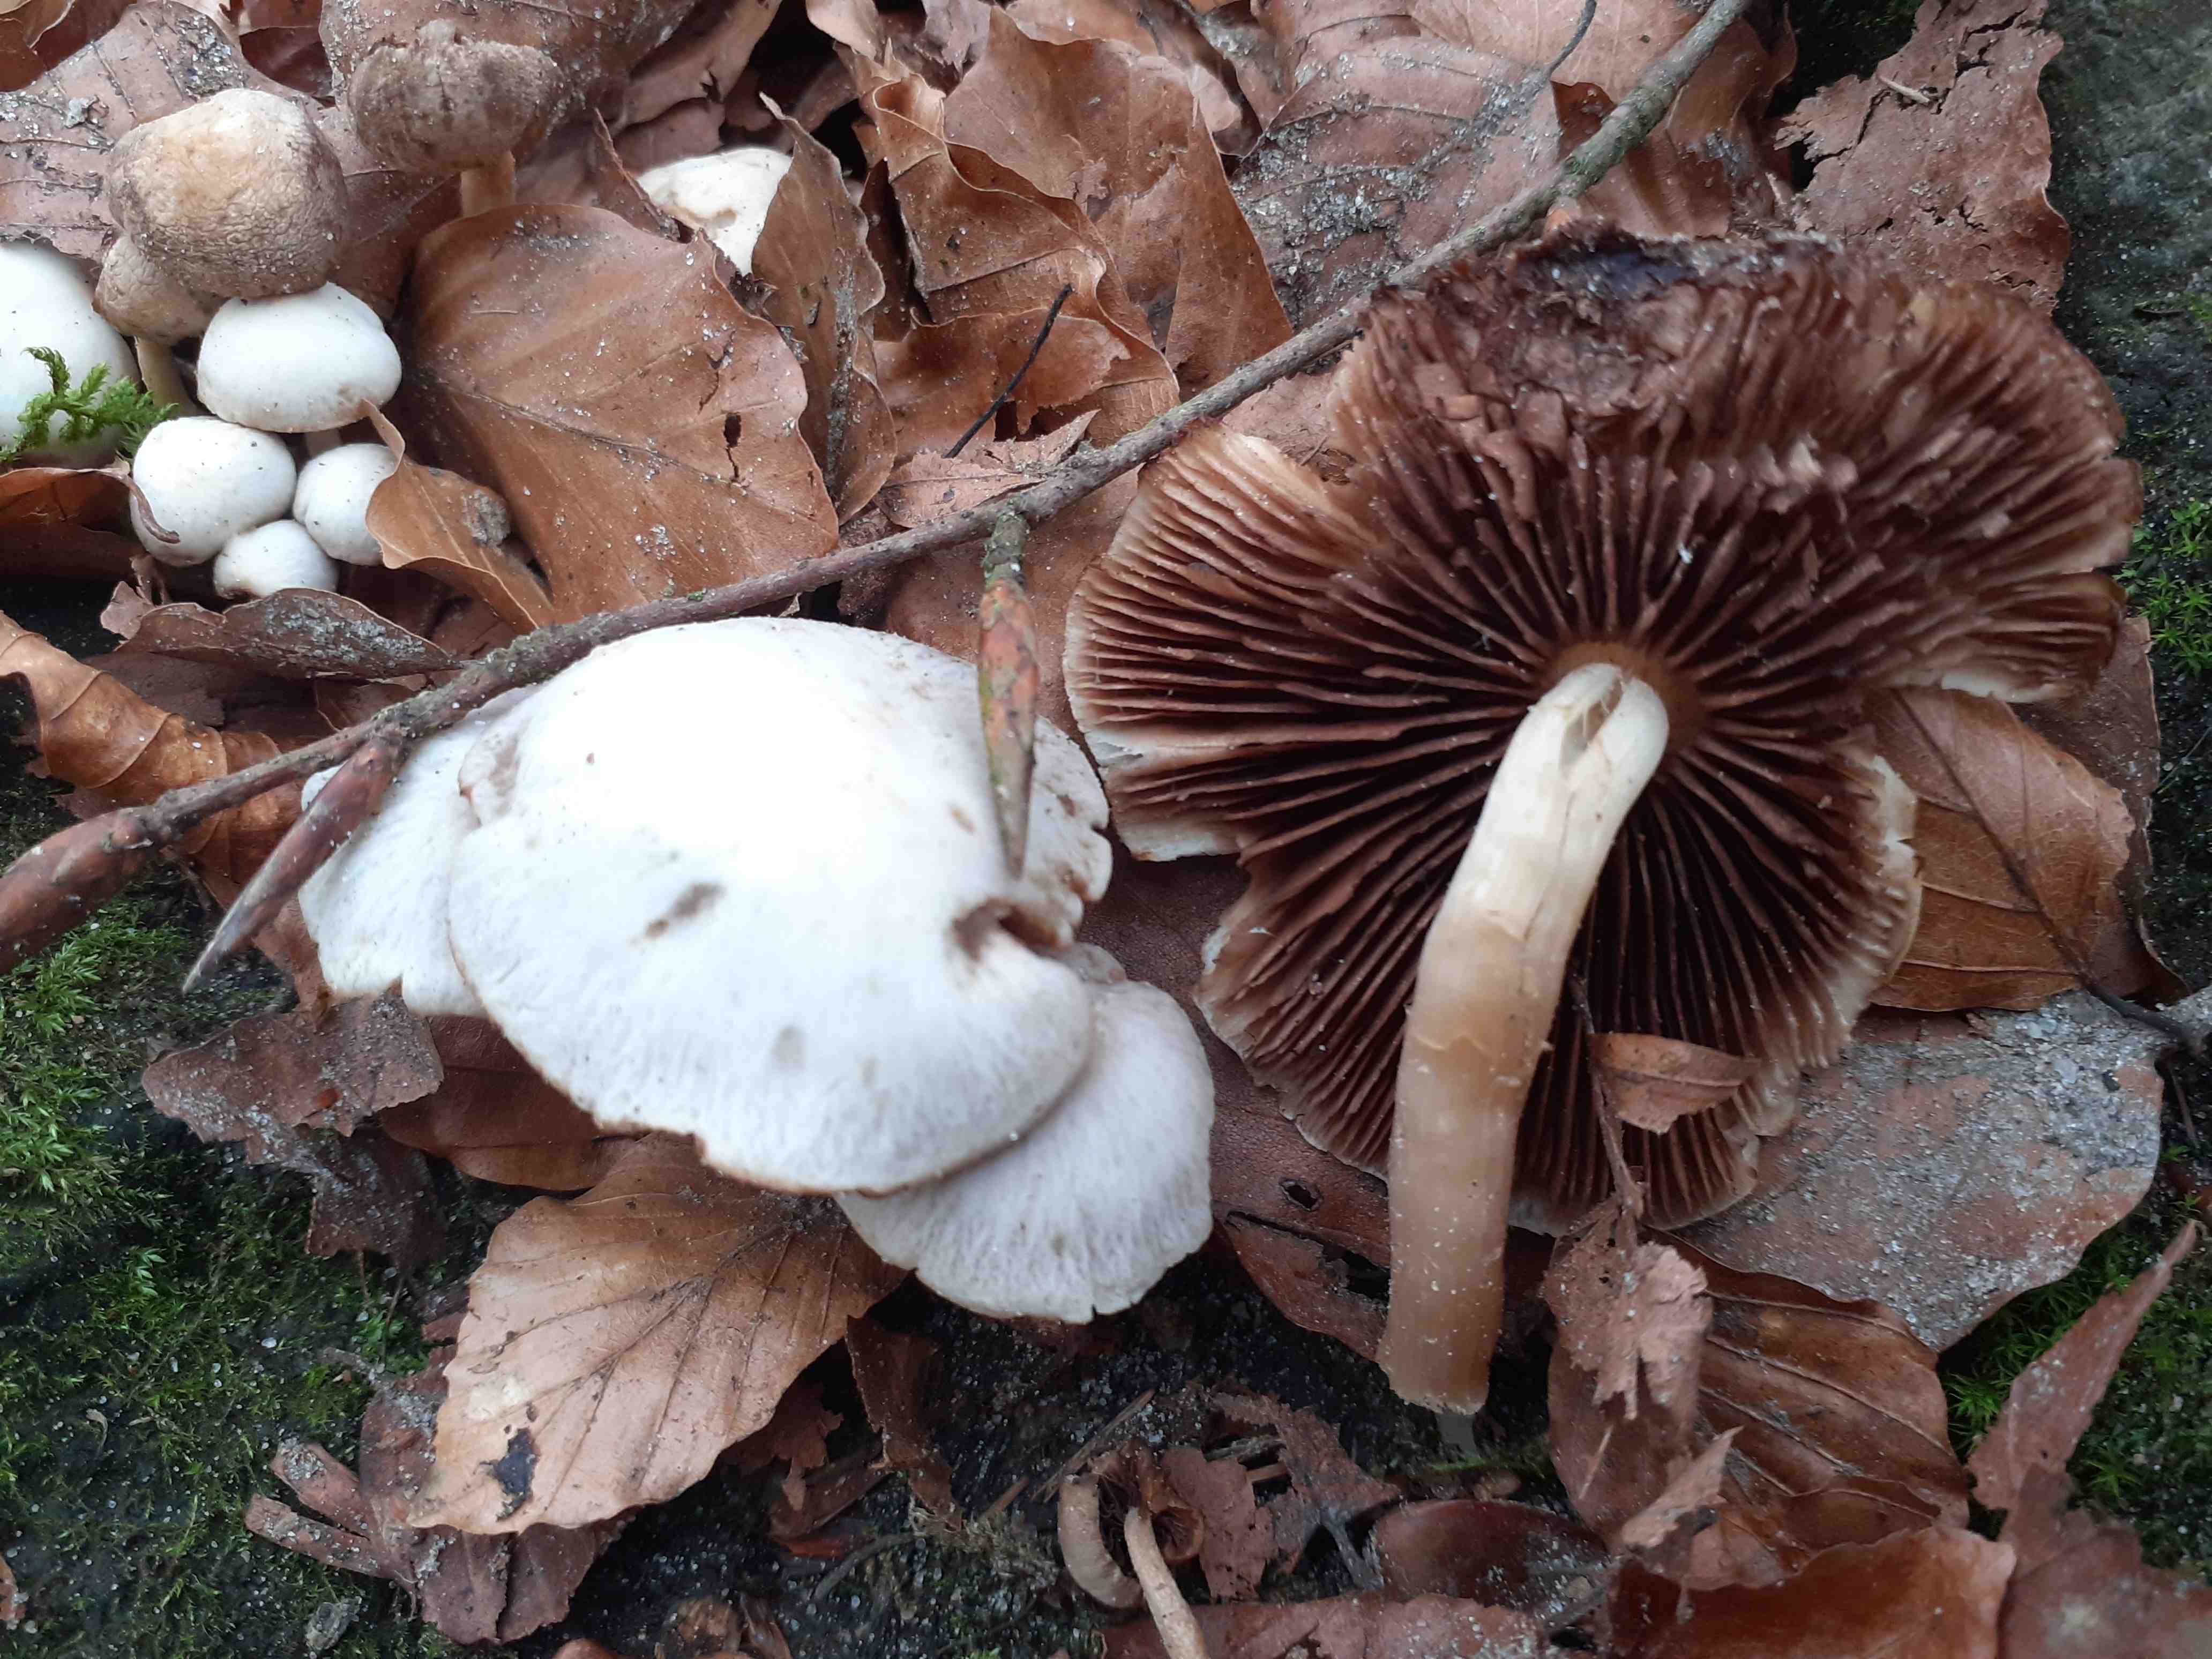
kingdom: Fungi
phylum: Basidiomycota
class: Agaricomycetes
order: Agaricales
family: Psathyrellaceae
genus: Homophron
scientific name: Homophron cernuum
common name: hvidlig mørkhat
